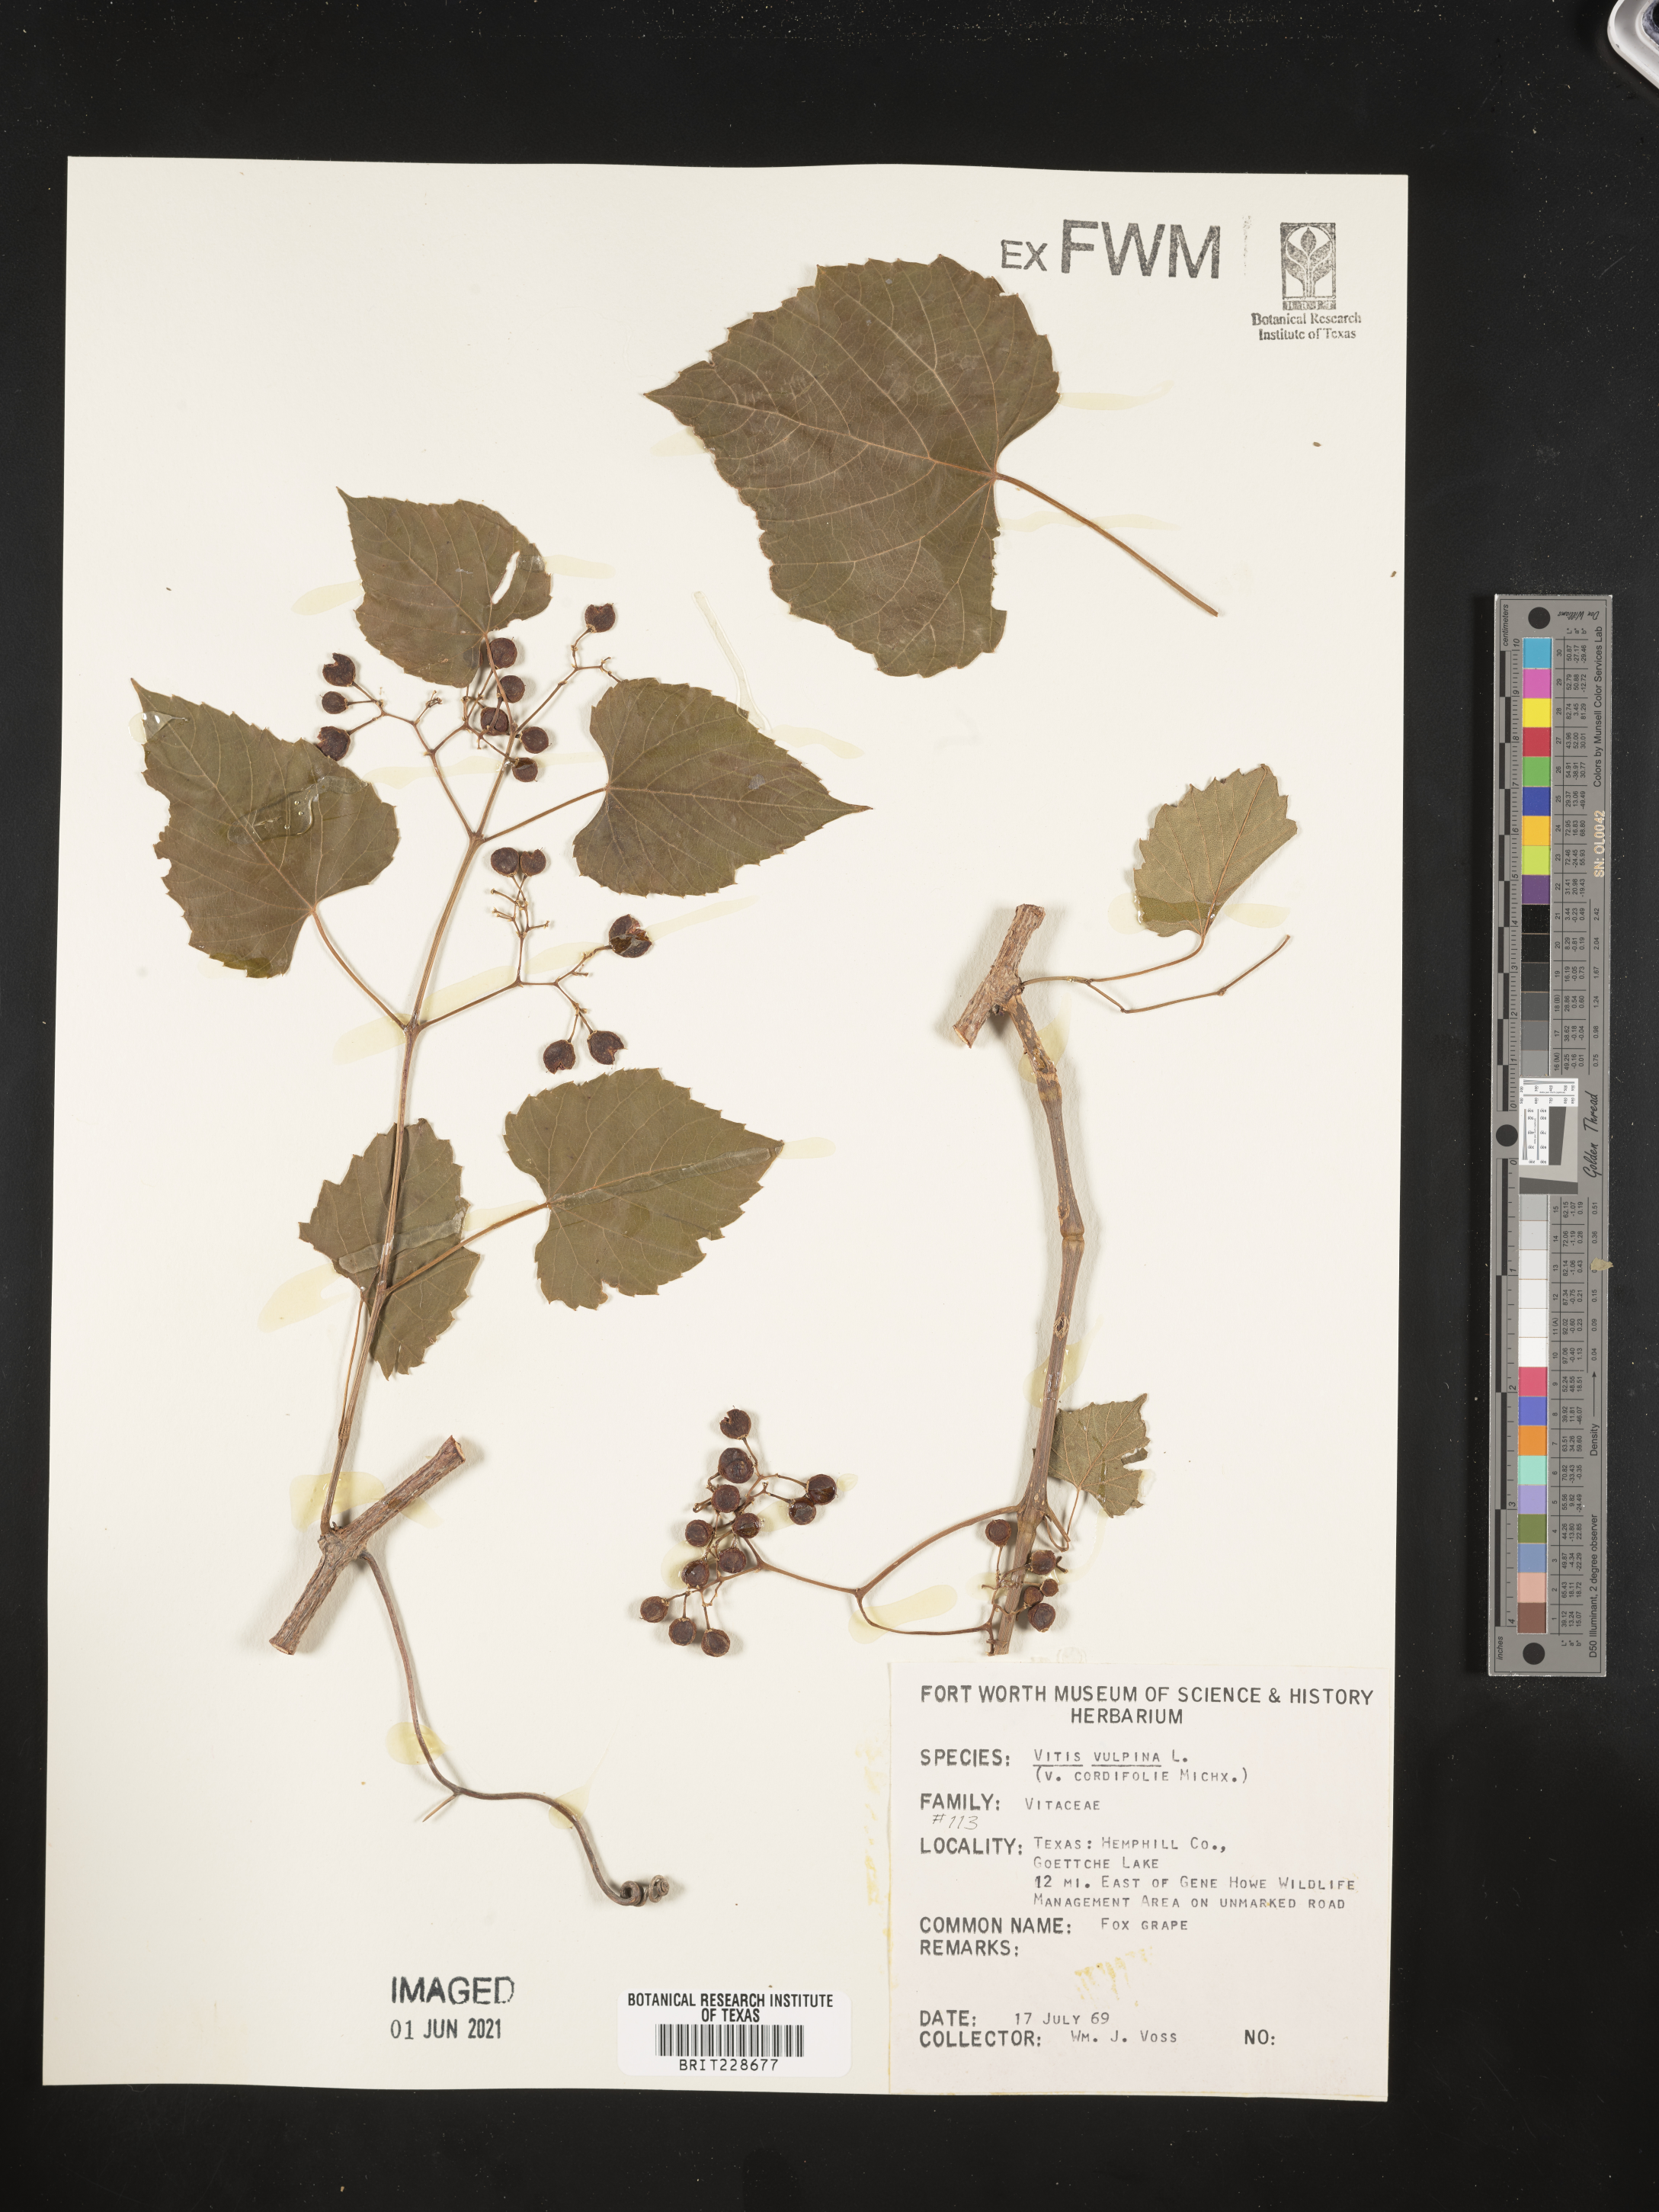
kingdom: Plantae
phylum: Tracheophyta
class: Magnoliopsida
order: Vitales
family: Vitaceae
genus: Vitis
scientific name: Vitis vulpina
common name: Frost grape
